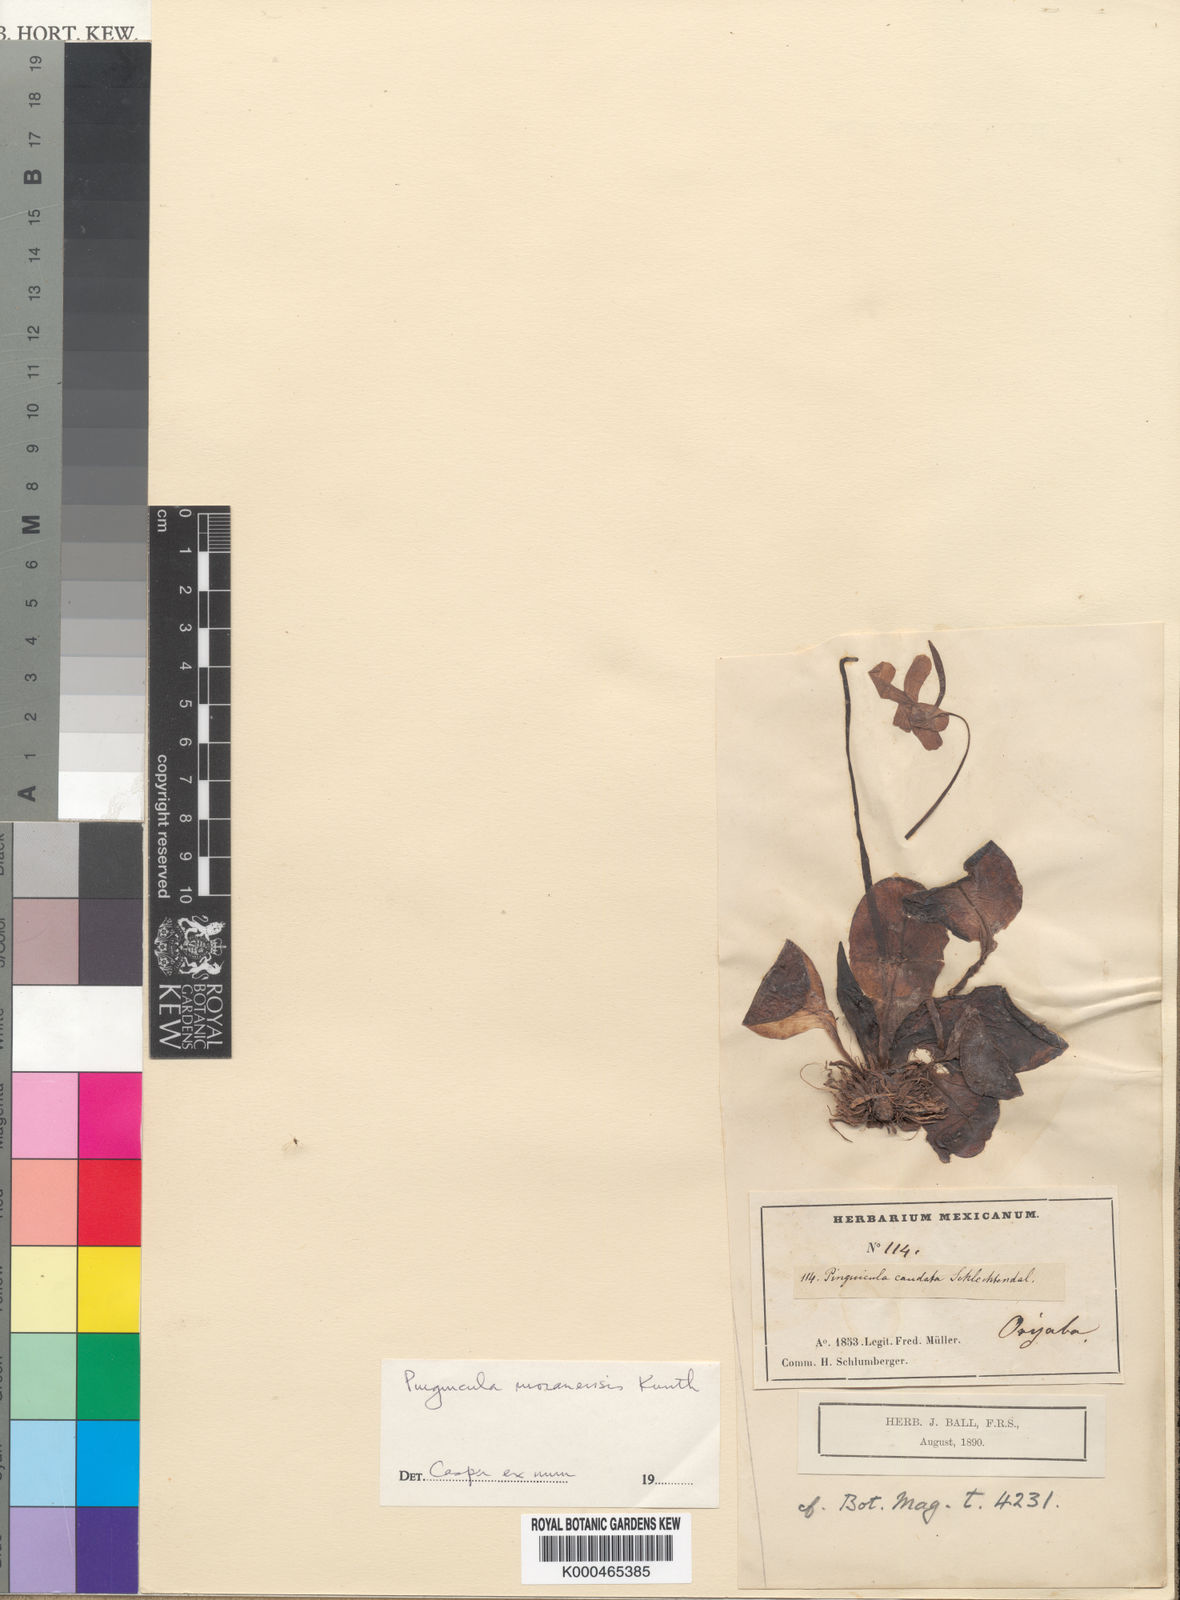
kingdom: Plantae
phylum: Tracheophyta
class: Magnoliopsida
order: Lamiales
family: Lentibulariaceae
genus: Pinguicula
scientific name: Pinguicula caudata
